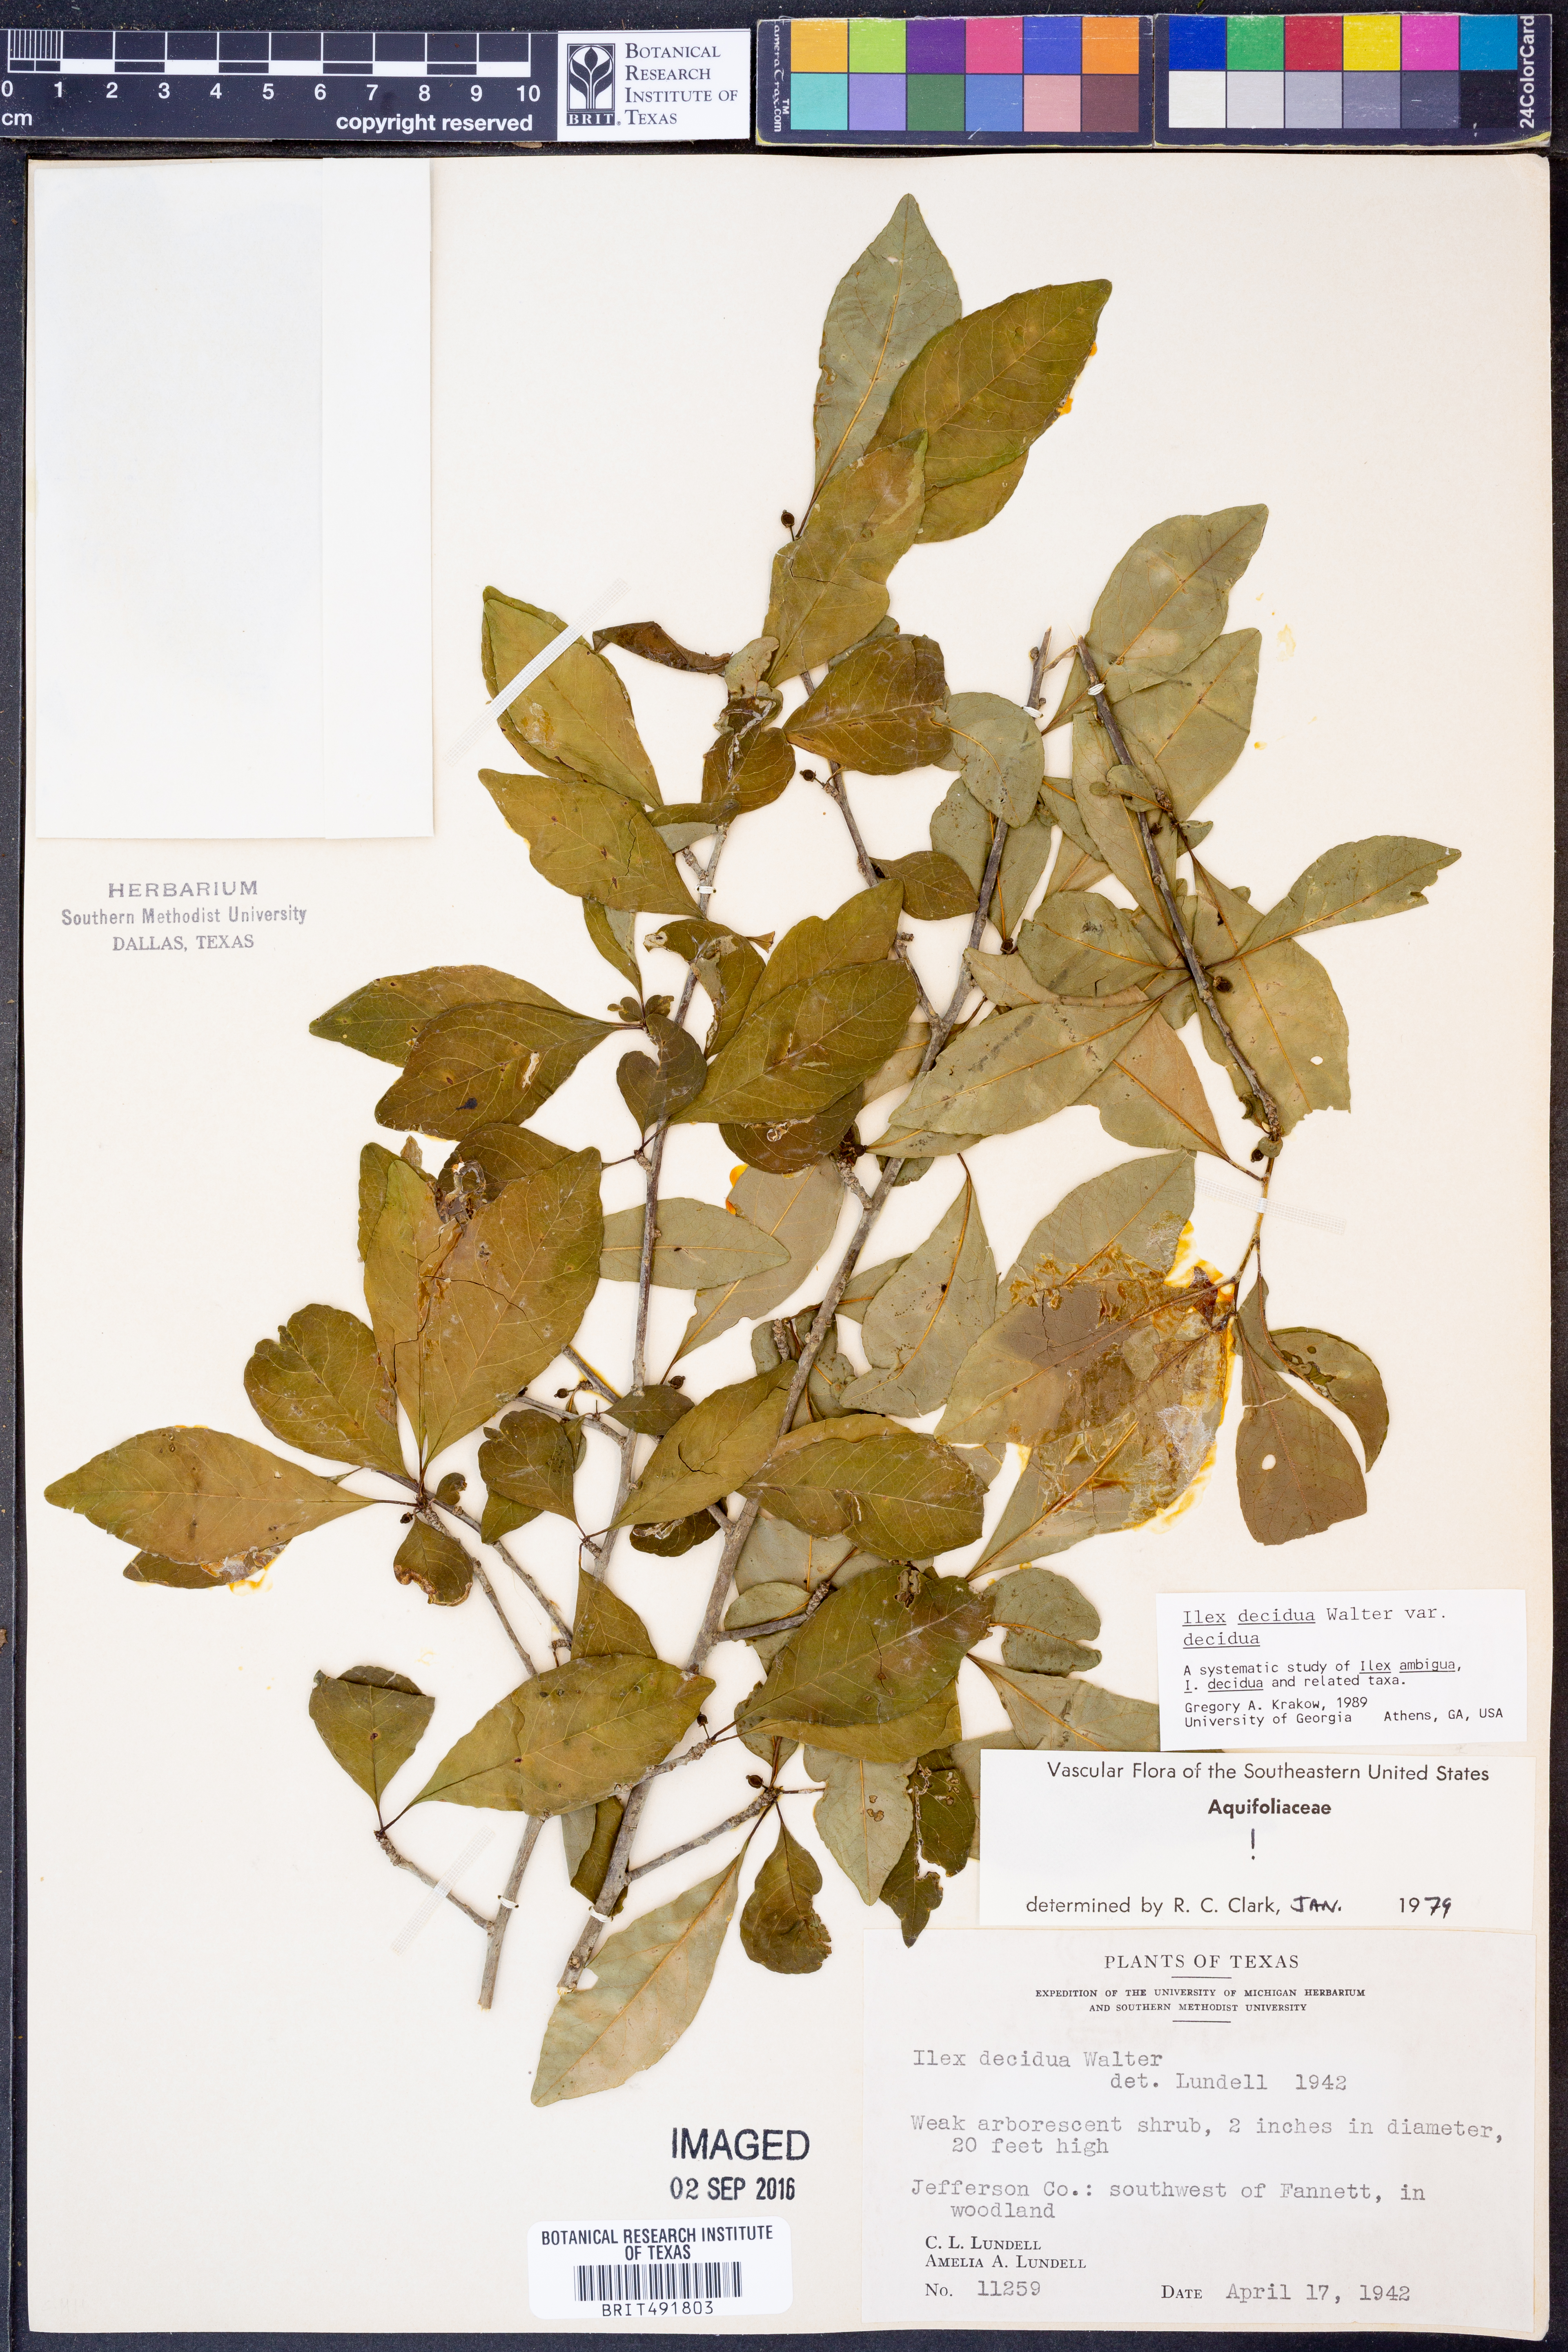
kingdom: Plantae
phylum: Tracheophyta
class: Magnoliopsida
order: Aquifoliales
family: Aquifoliaceae
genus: Ilex
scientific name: Ilex decidua
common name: Possum-haw
